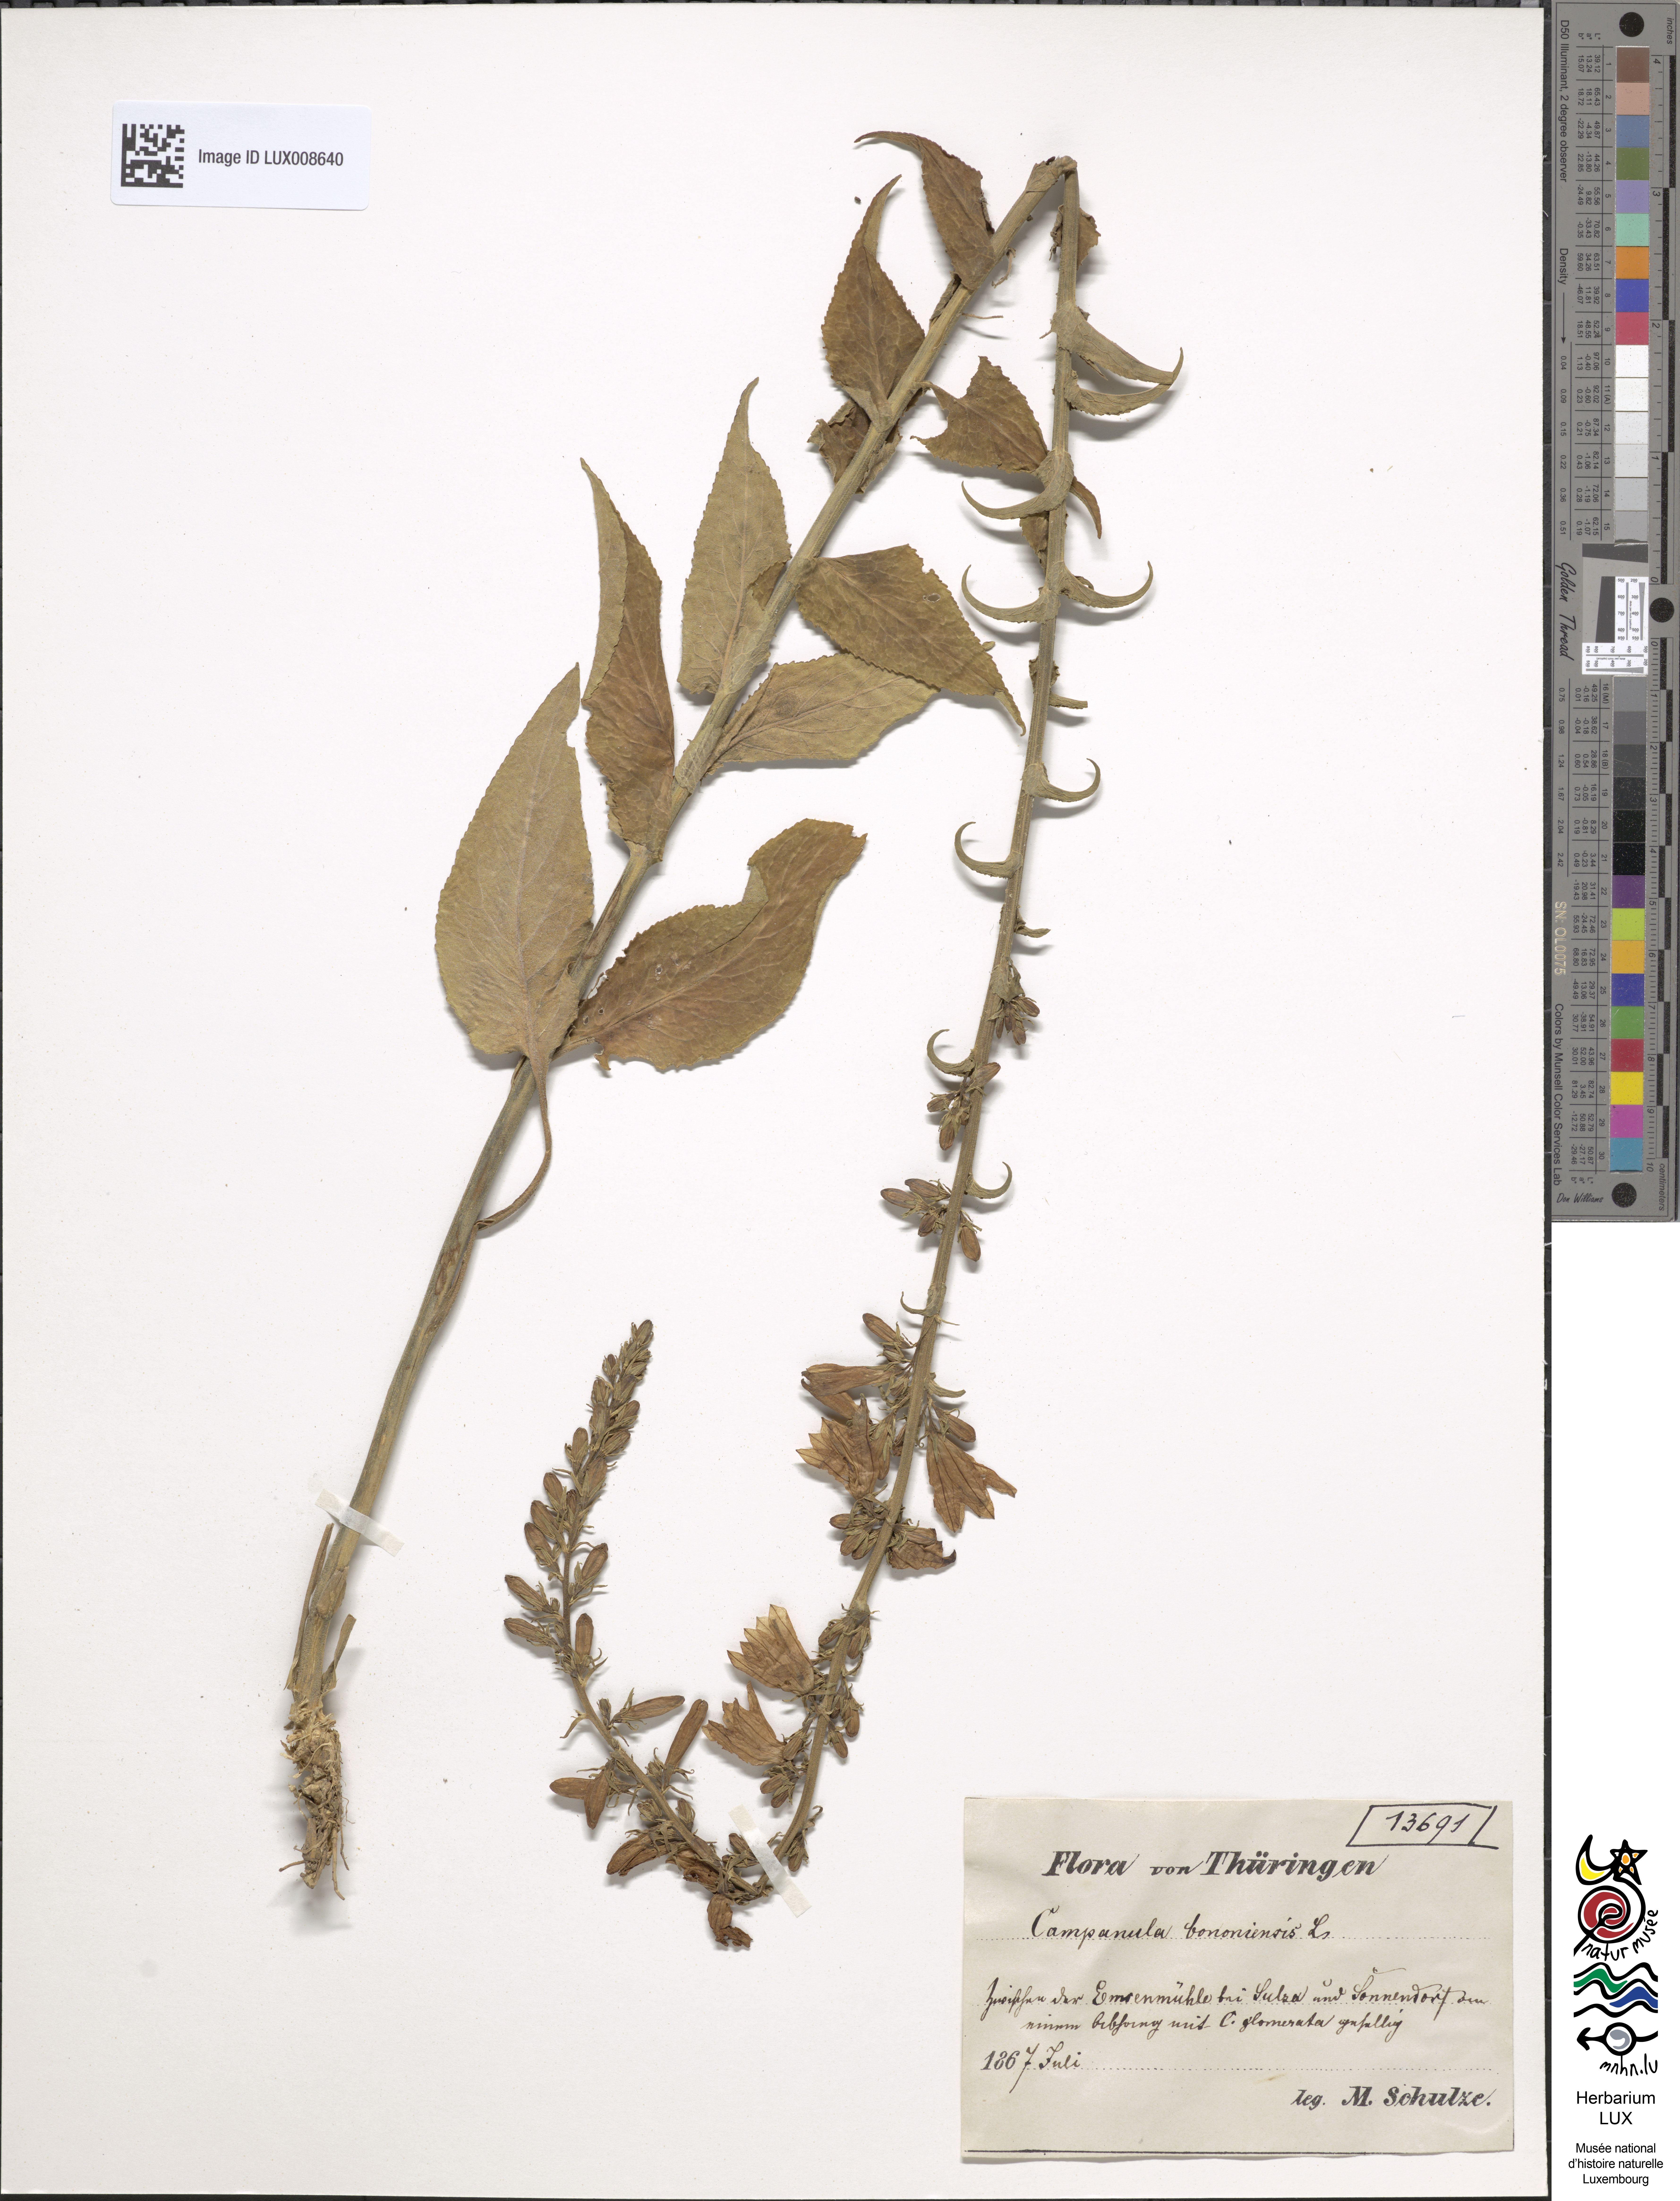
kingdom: Plantae
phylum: Tracheophyta
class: Magnoliopsida
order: Asterales
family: Campanulaceae
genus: Campanula
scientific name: Campanula bononiensis
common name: Pale bellflower
